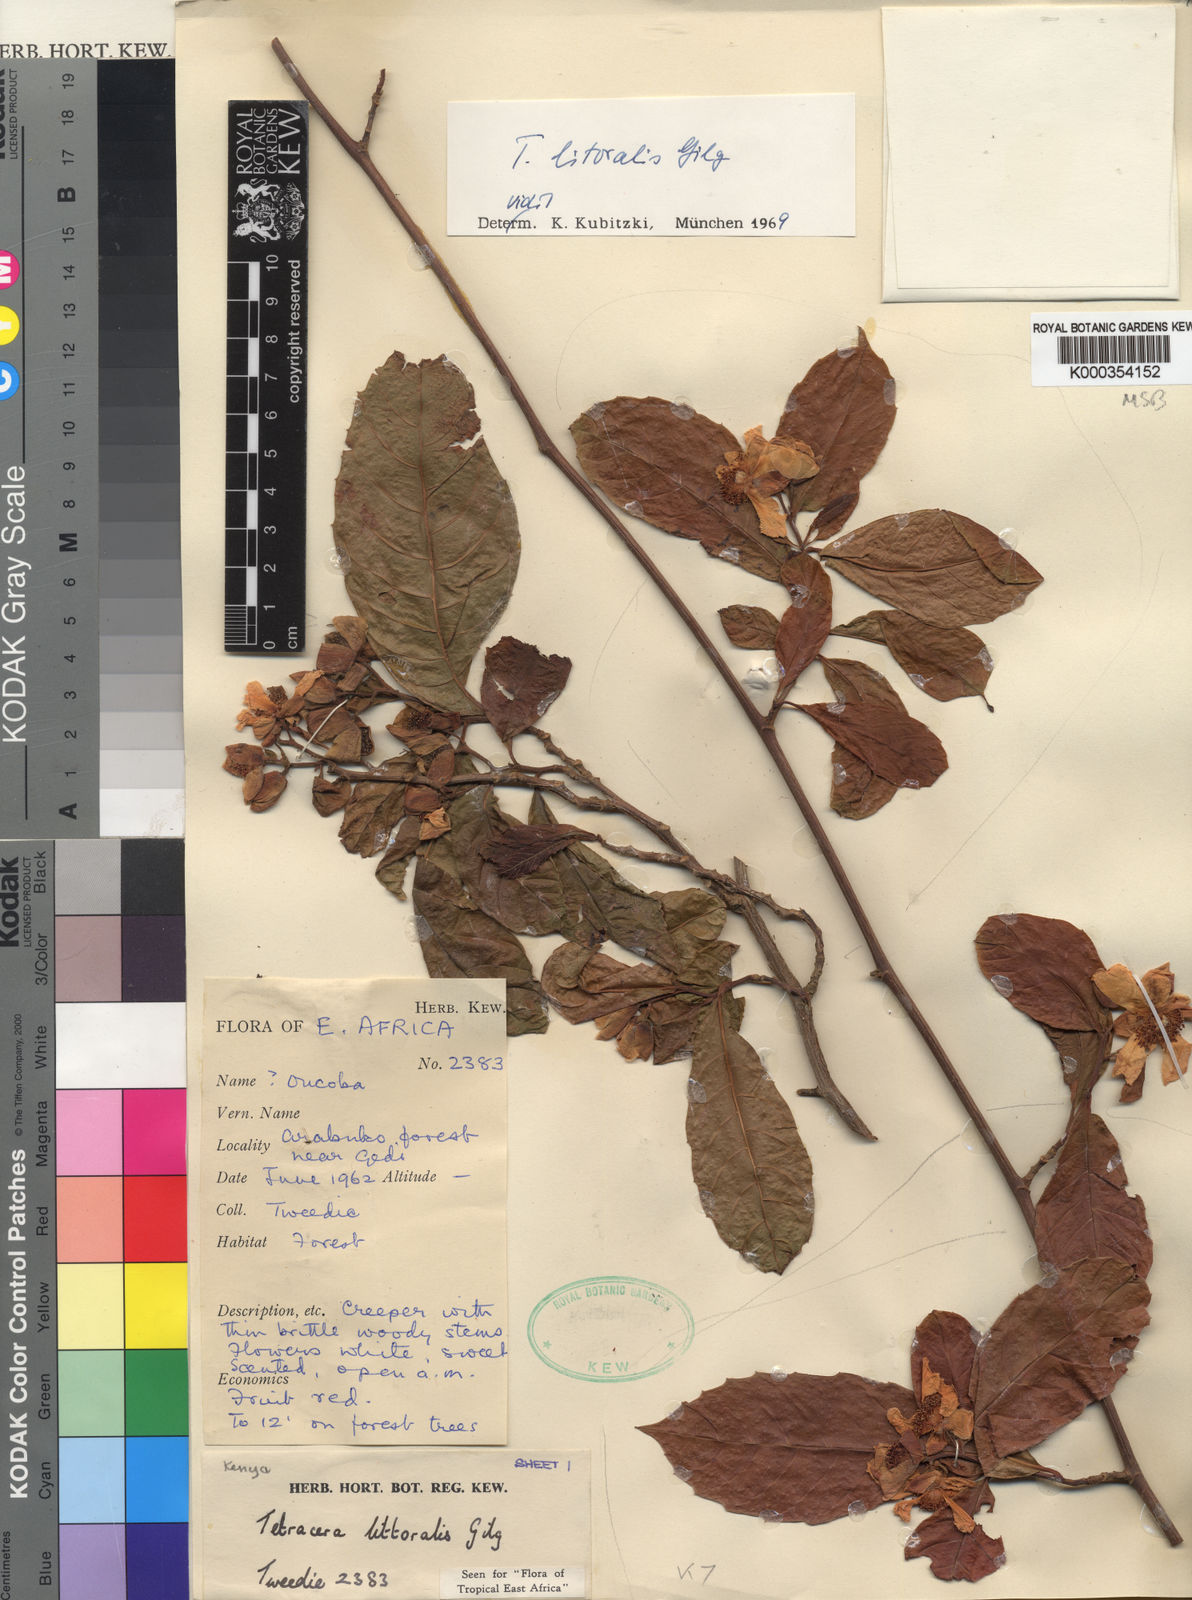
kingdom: Plantae
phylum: Tracheophyta
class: Magnoliopsida
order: Dilleniales
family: Dilleniaceae
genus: Tetracera
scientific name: Tetracera litoralis
